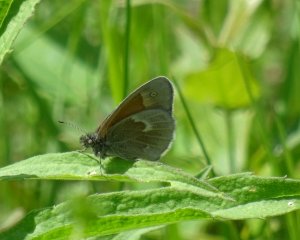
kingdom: Animalia
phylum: Arthropoda
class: Insecta
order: Lepidoptera
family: Nymphalidae
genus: Coenonympha
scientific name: Coenonympha tullia
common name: Large Heath
